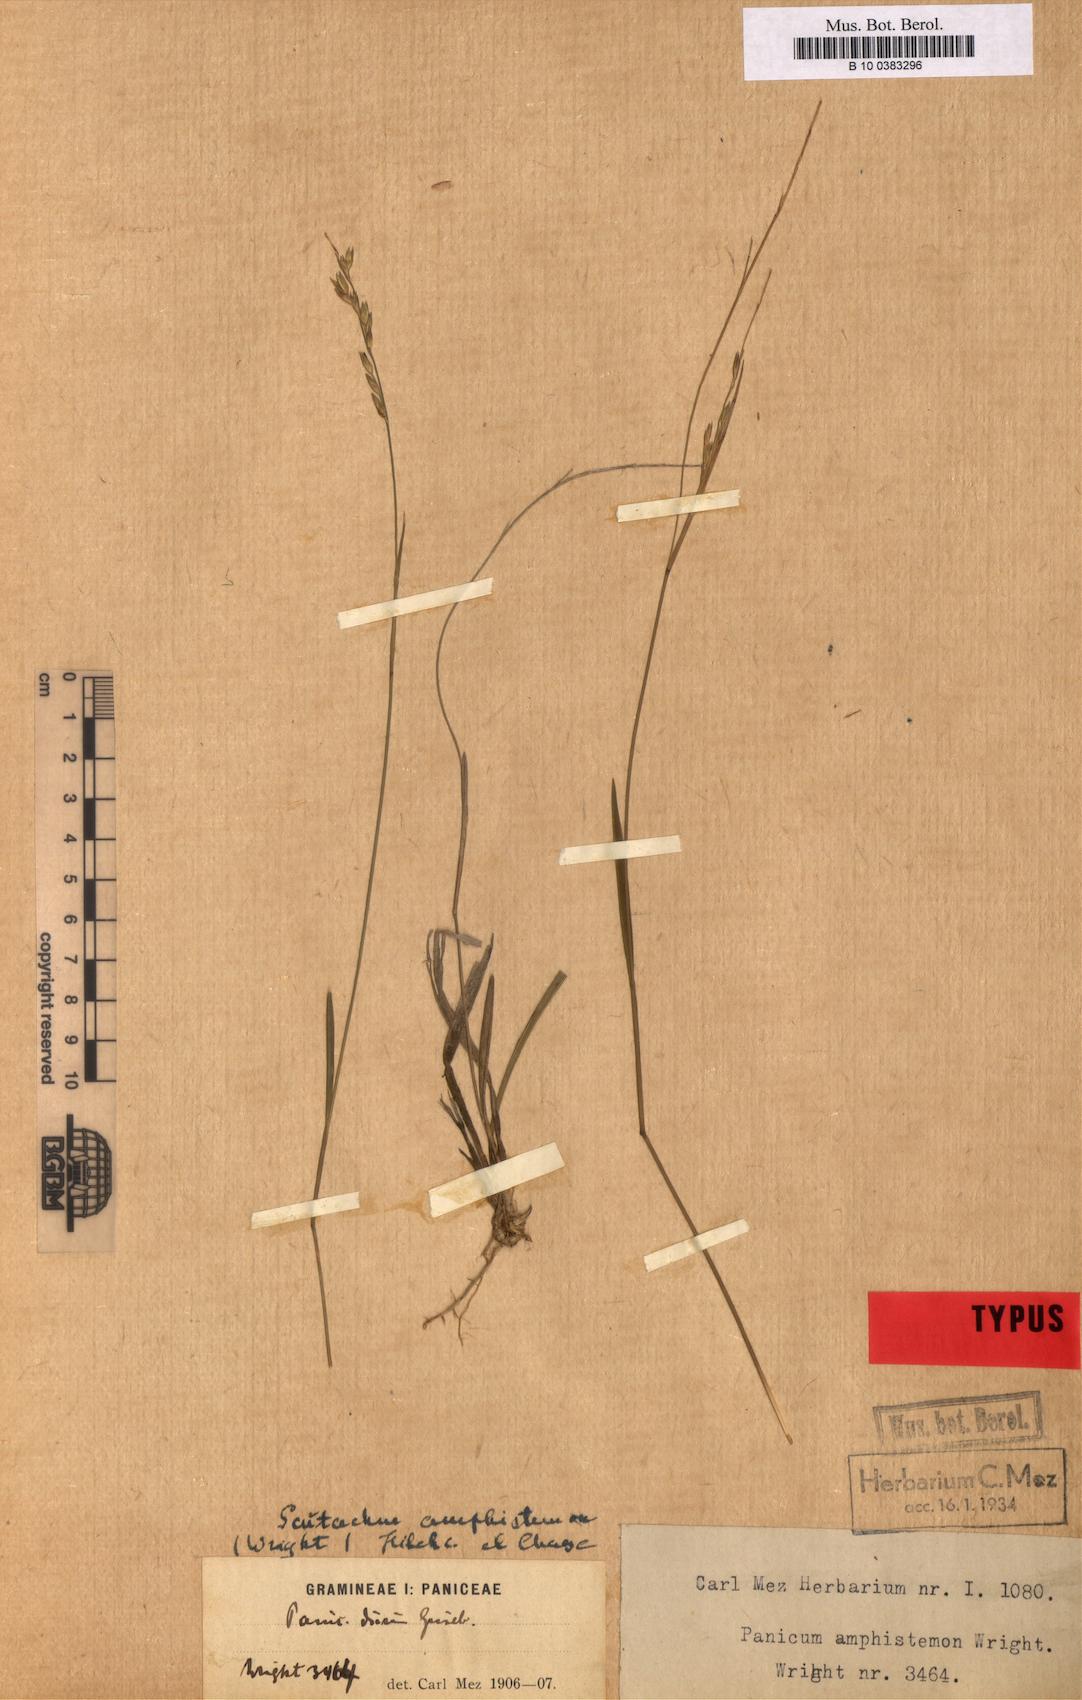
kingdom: Plantae
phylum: Tracheophyta
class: Liliopsida
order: Poales
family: Poaceae
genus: Mayariochloa
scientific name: Mayariochloa amphistemon
